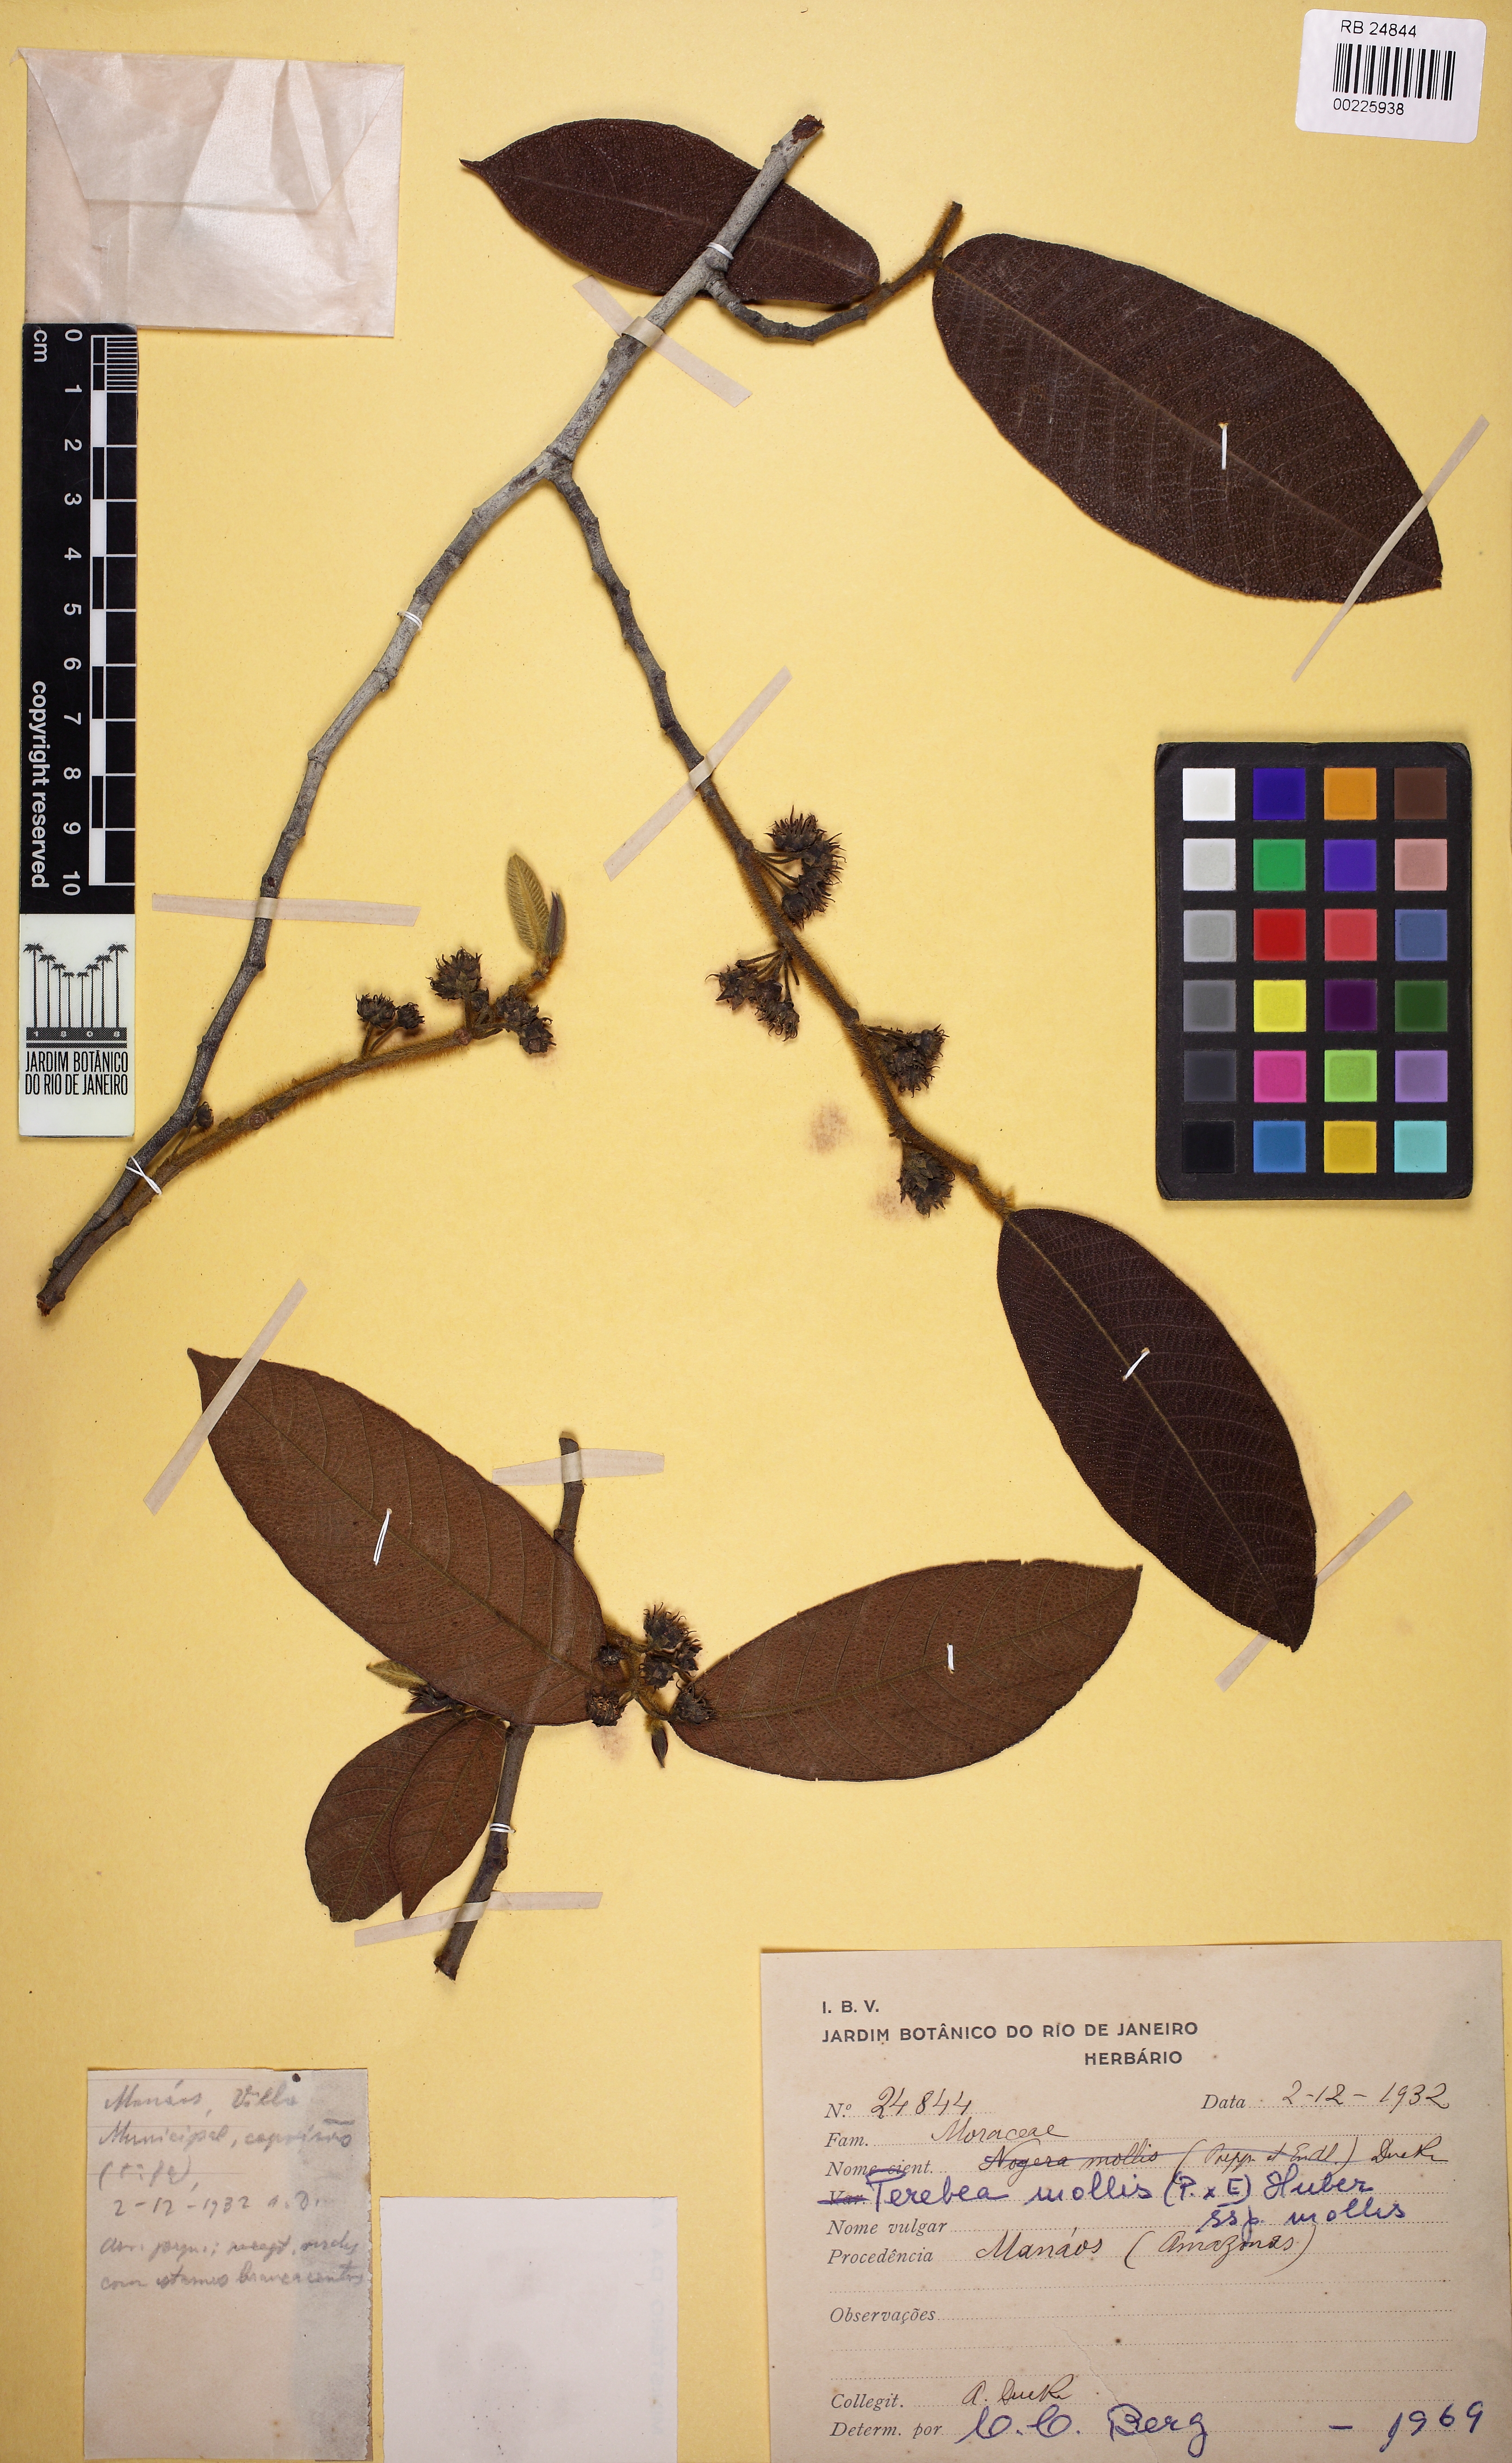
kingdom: Plantae
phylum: Tracheophyta
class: Magnoliopsida
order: Rosales
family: Moraceae
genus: Perebea
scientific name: Perebea mollis
